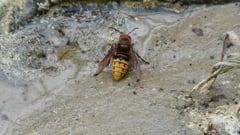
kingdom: Animalia
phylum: Arthropoda
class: Insecta
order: Hymenoptera
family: Vespidae
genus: Vespa
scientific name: Vespa crabro
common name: Hornet
